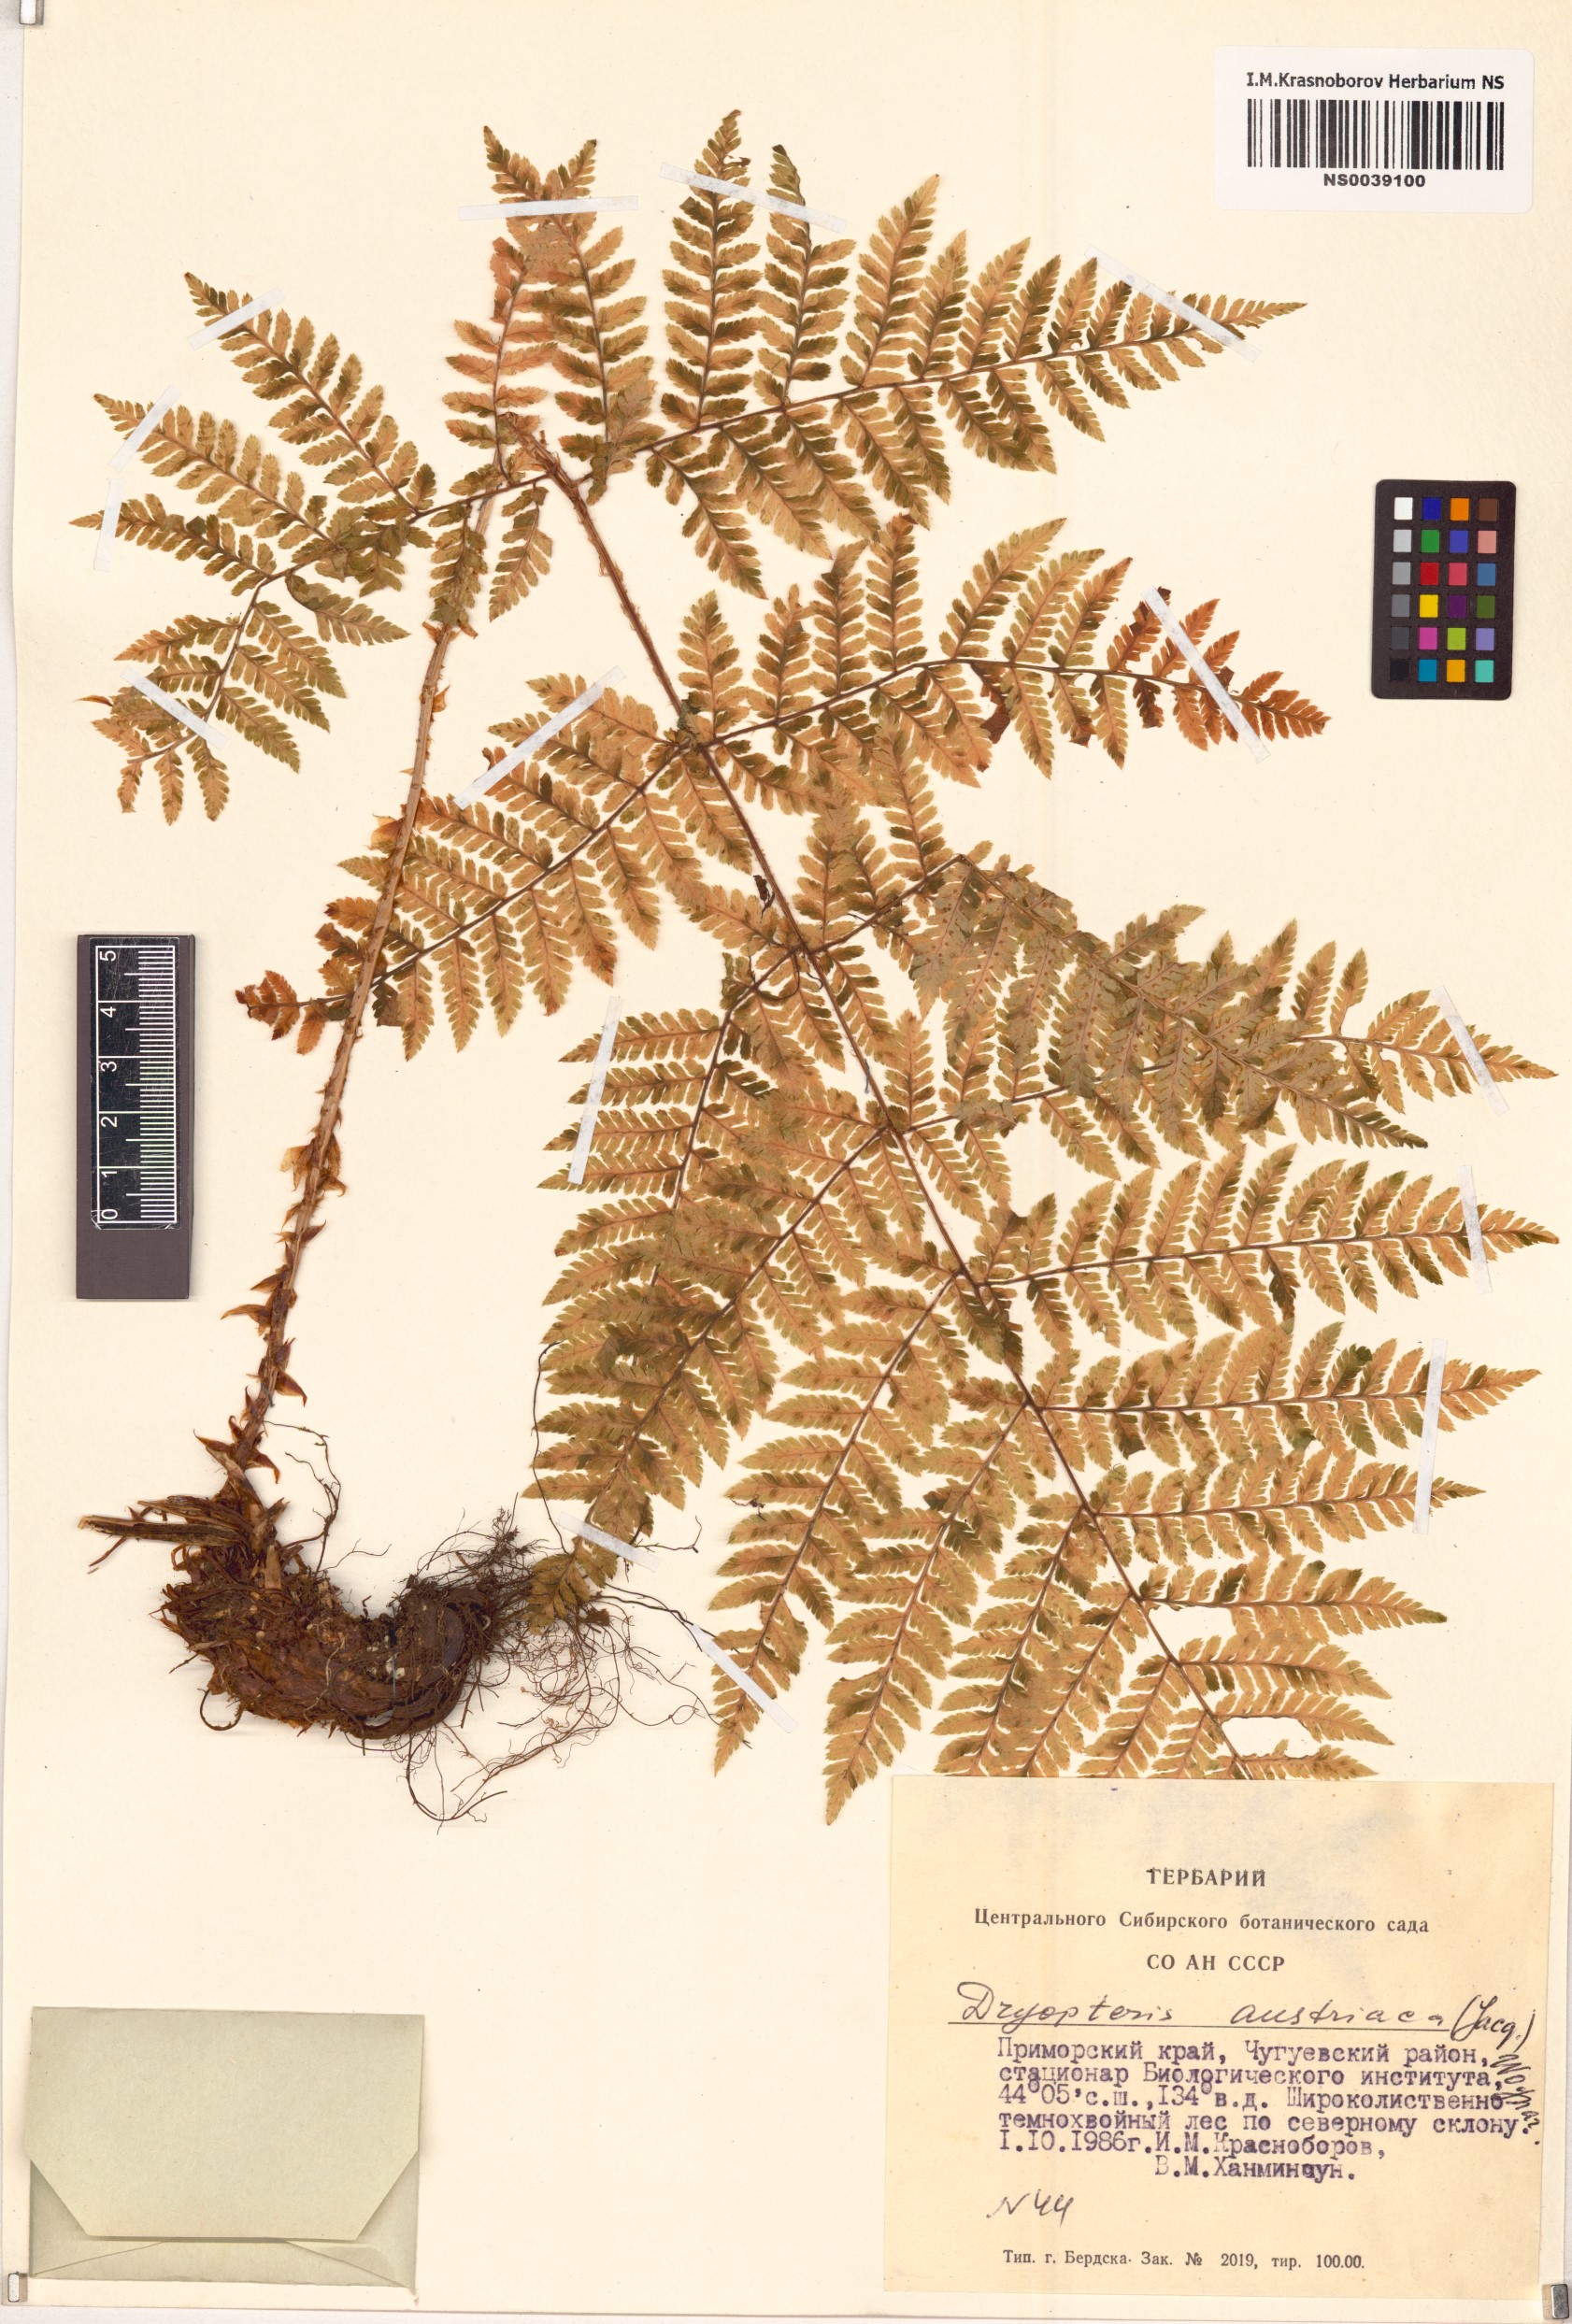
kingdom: Plantae
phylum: Tracheophyta
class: Polypodiopsida
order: Polypodiales
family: Dryopteridaceae
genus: Dryopteris
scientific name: Dryopteris dilatata
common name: Broad buckler-fern
